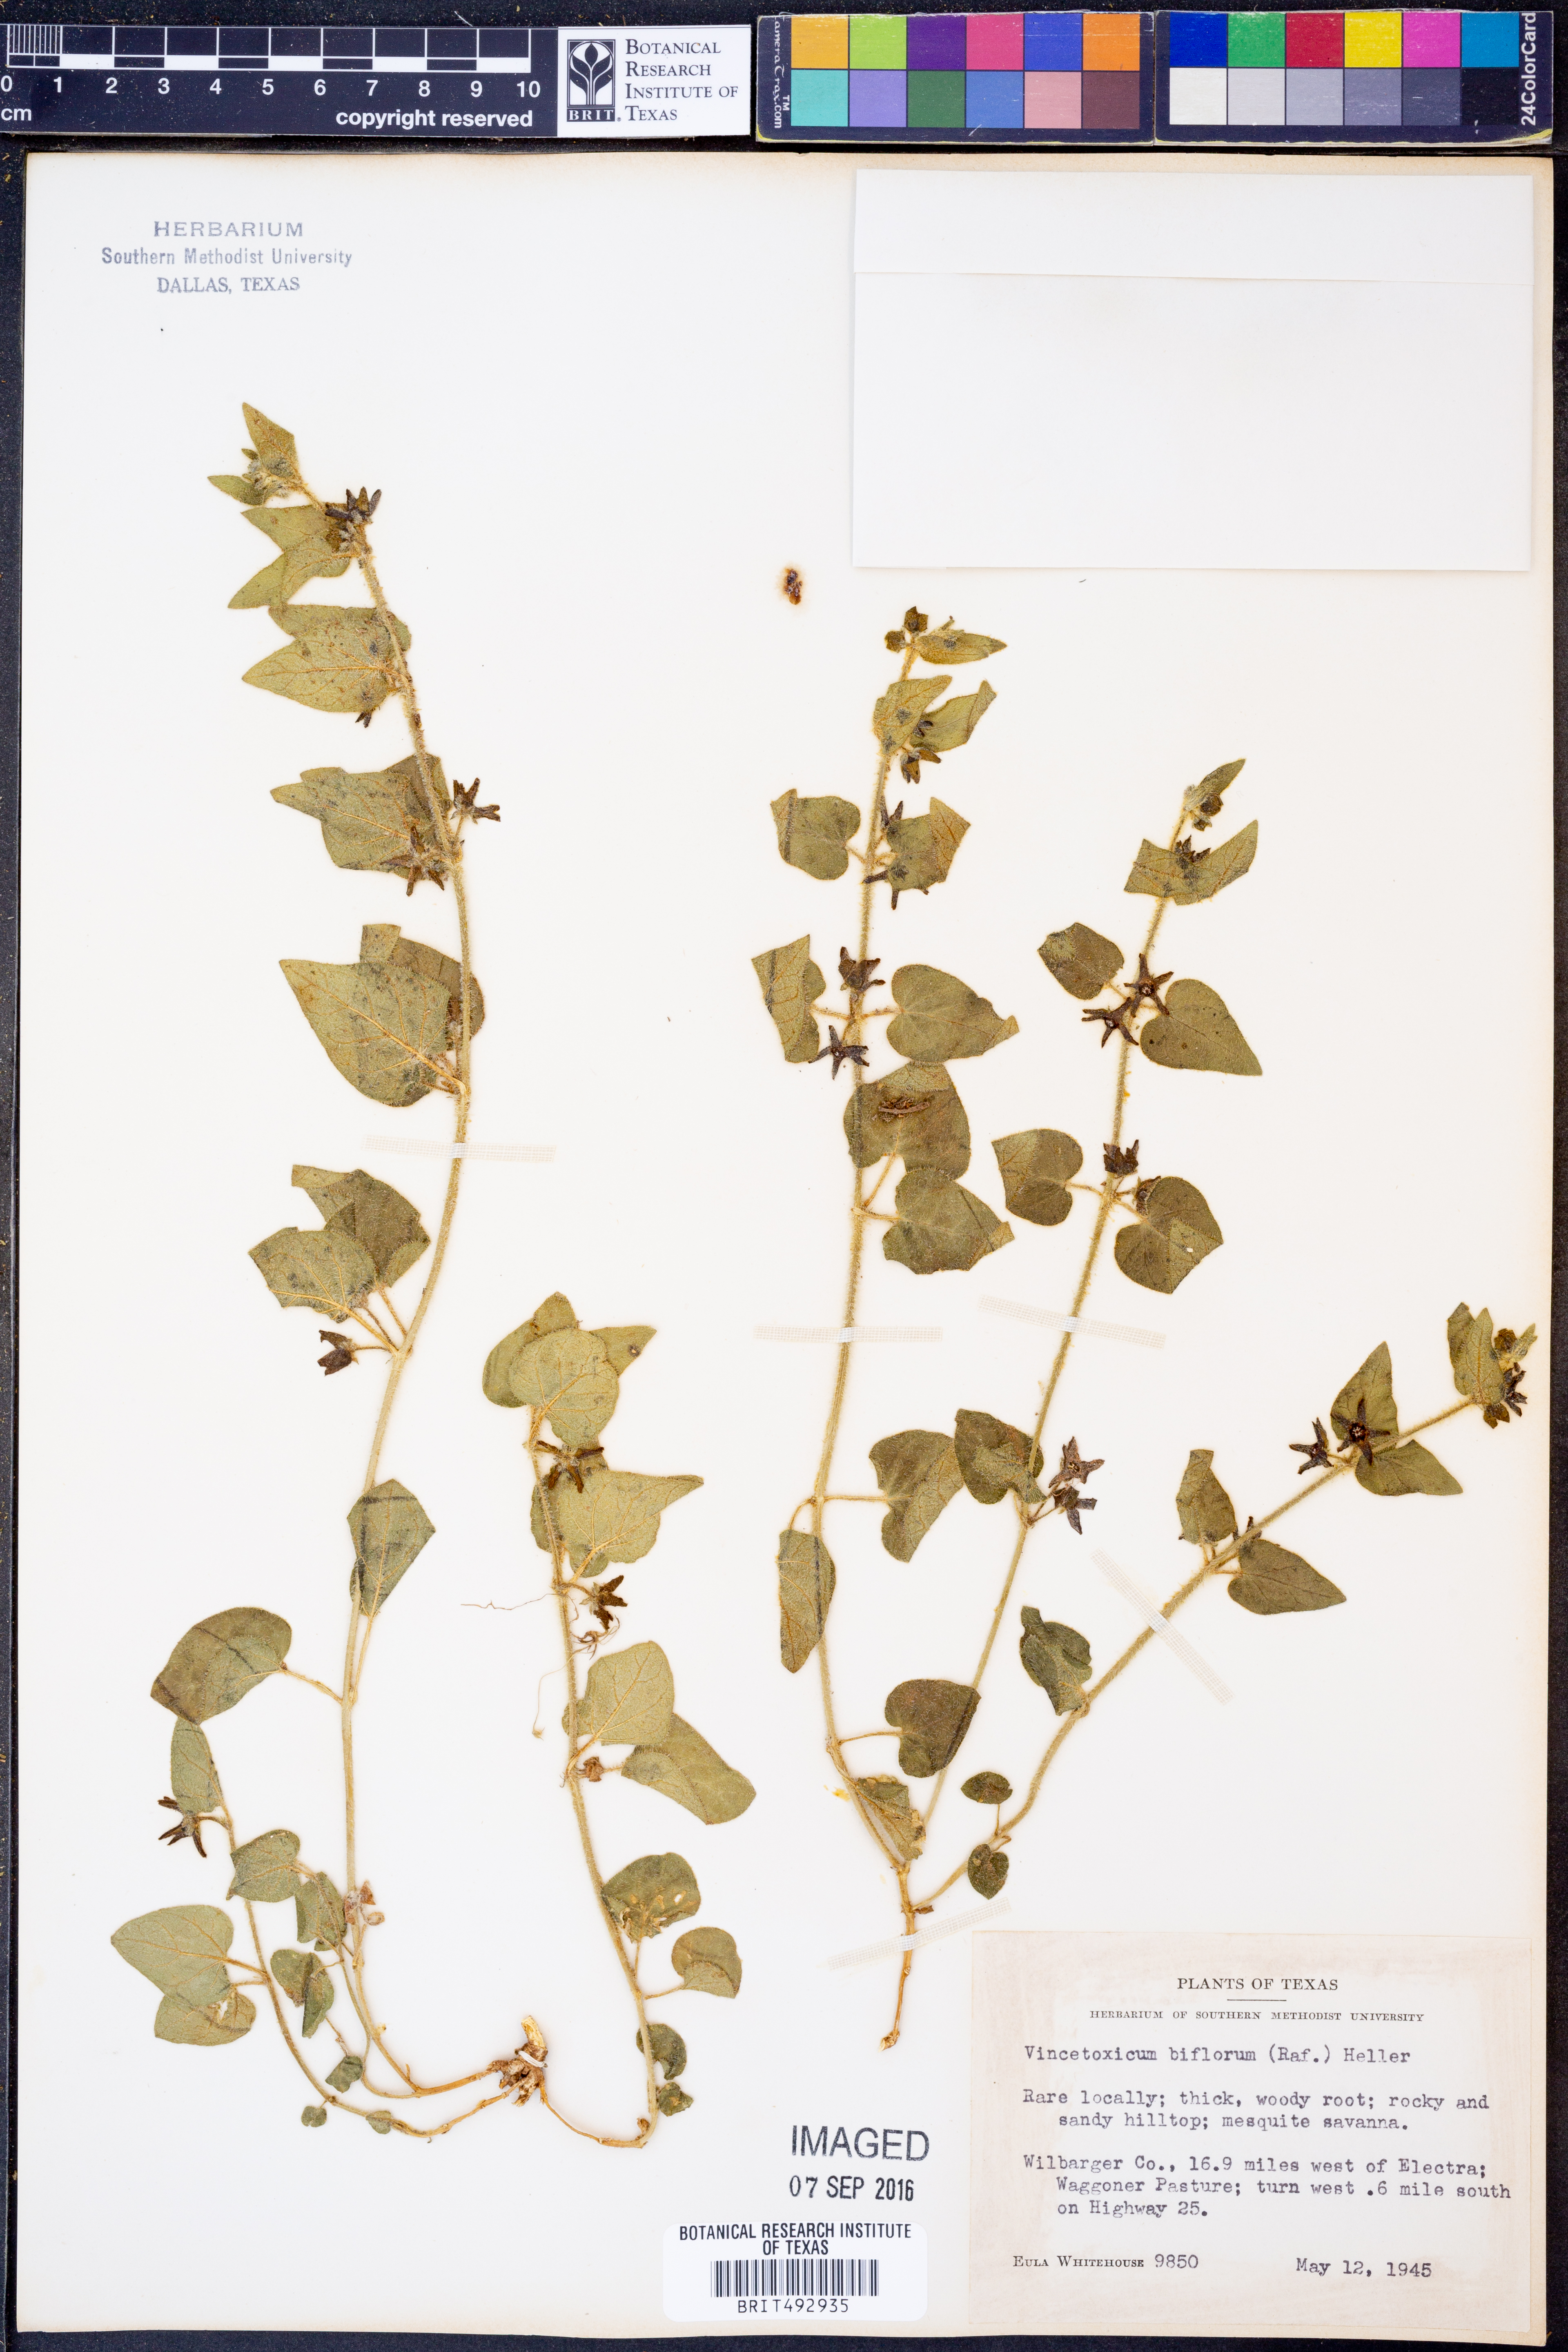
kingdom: Plantae
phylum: Tracheophyta
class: Magnoliopsida
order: Gentianales
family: Apocynaceae
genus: Chthamalia
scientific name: Chthamalia biflora
